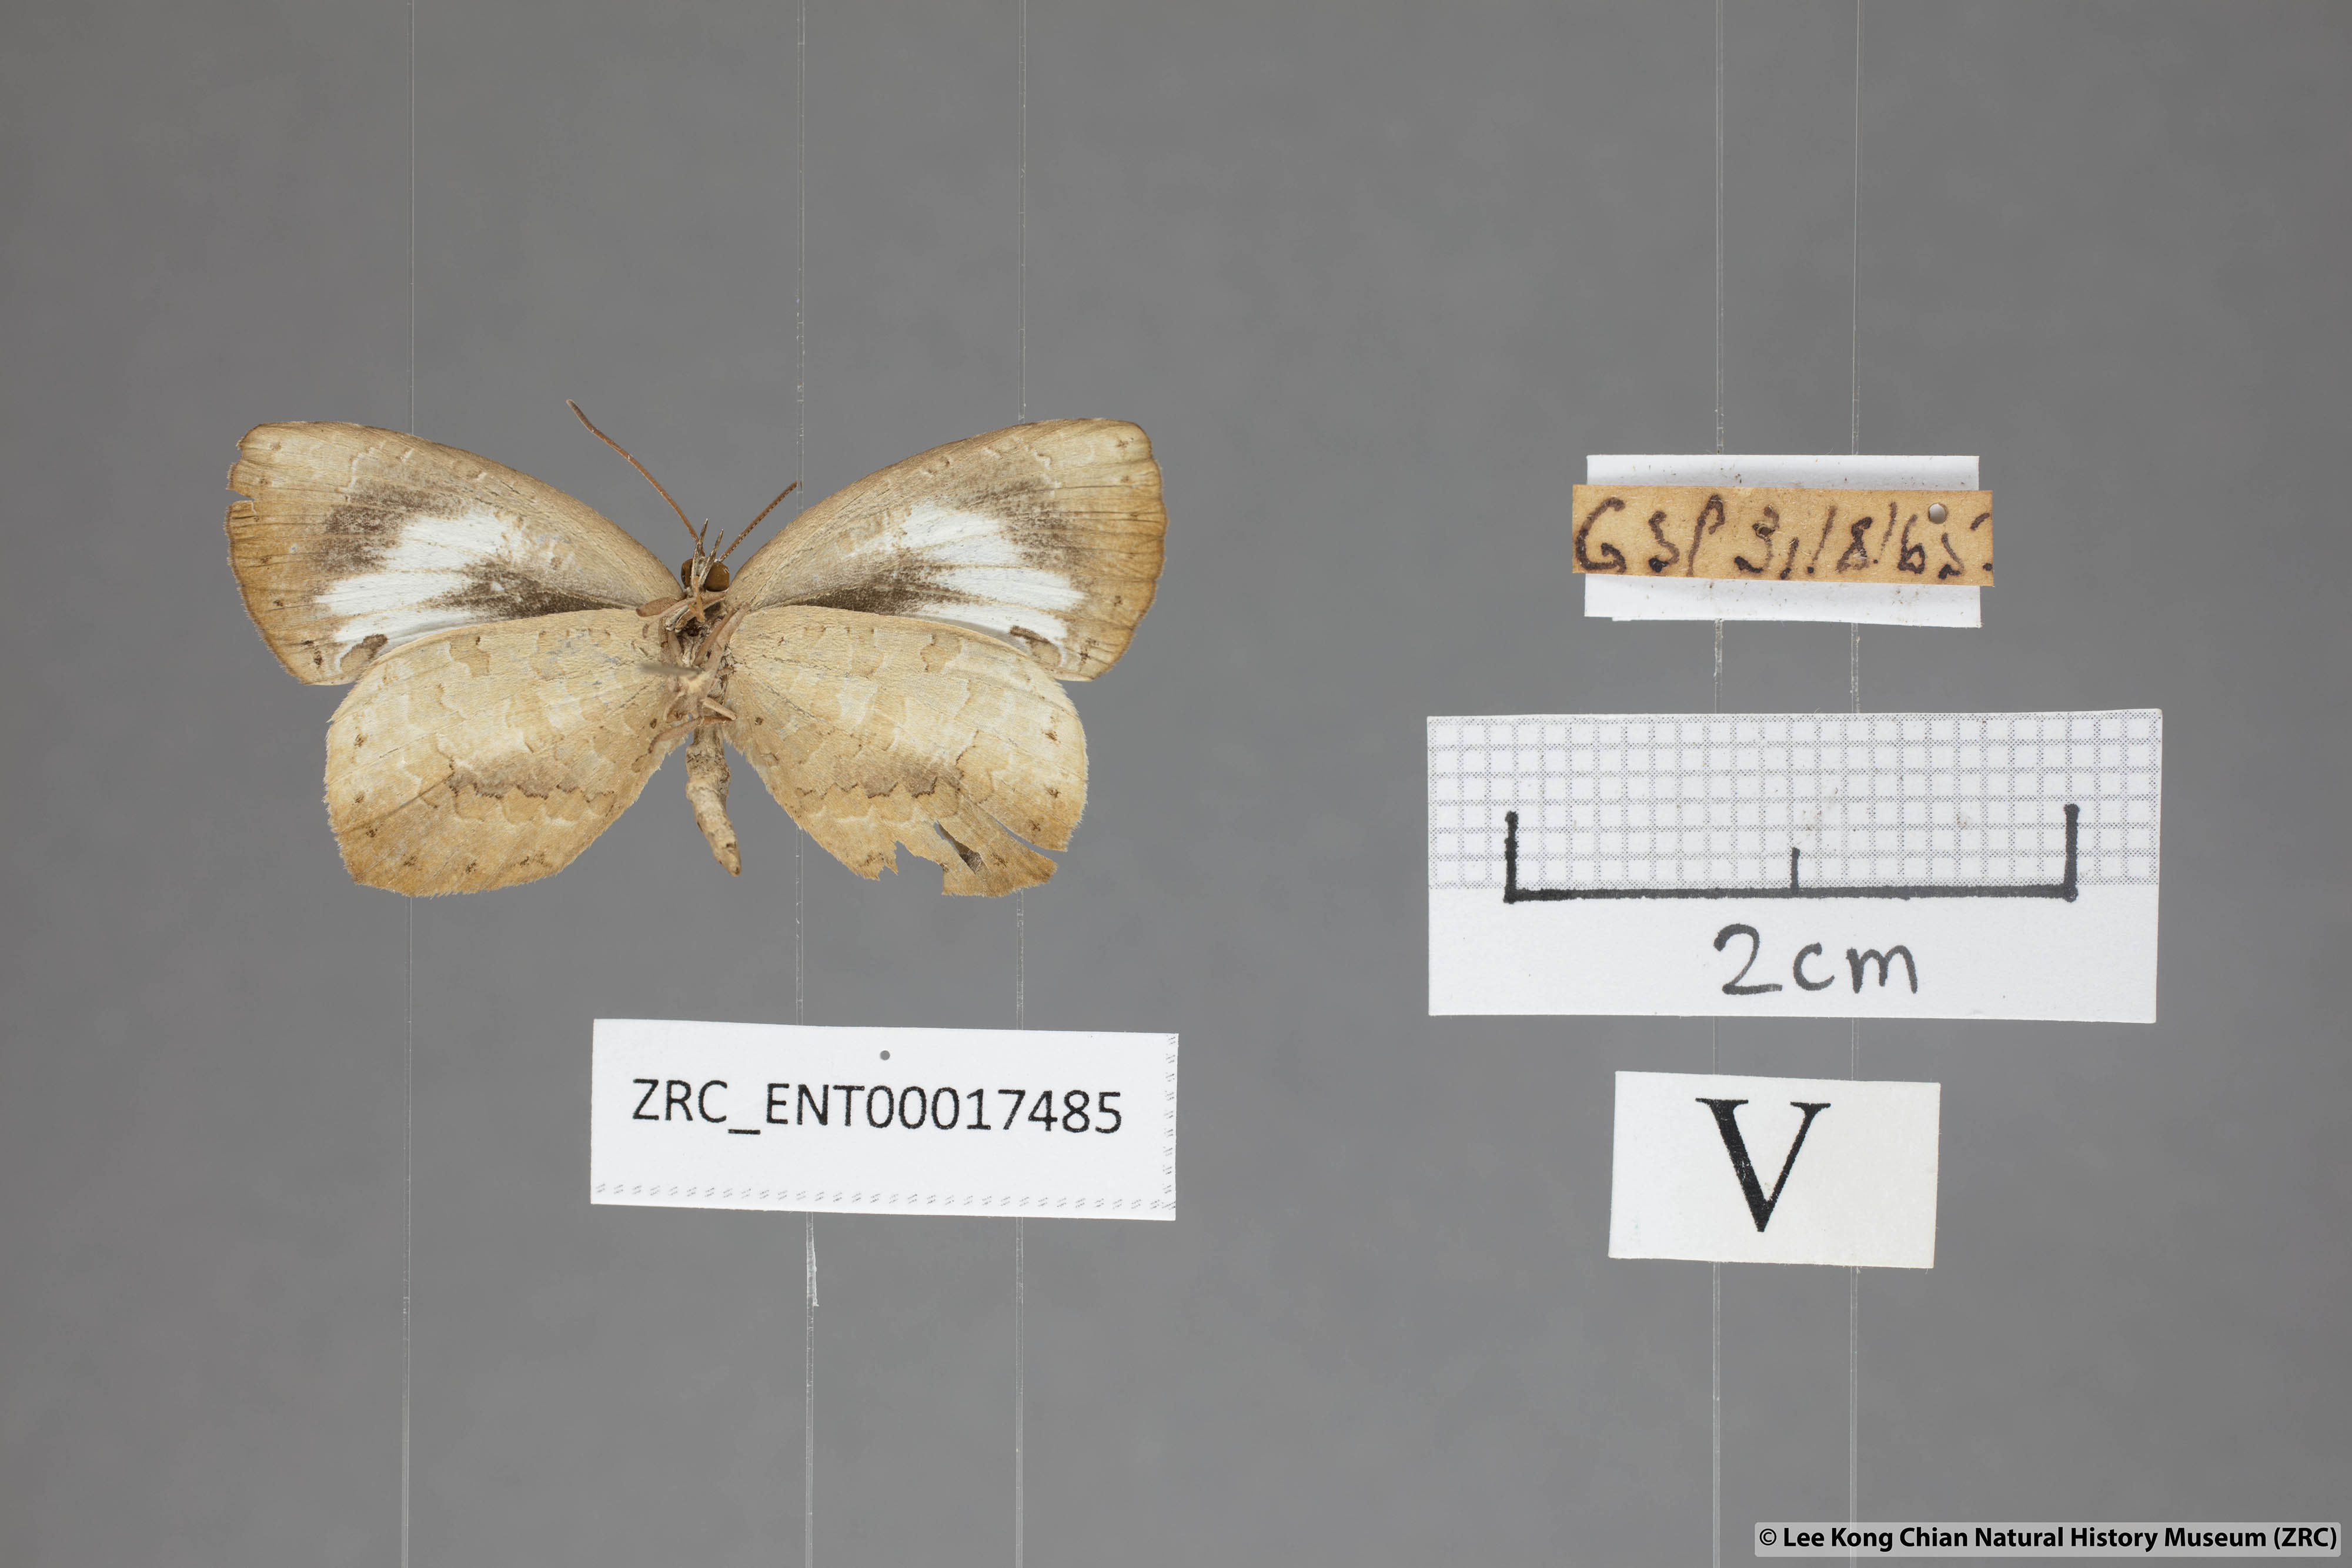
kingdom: Animalia
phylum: Arthropoda
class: Insecta
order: Lepidoptera
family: Lycaenidae
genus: Miletus
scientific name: Miletus symethus
